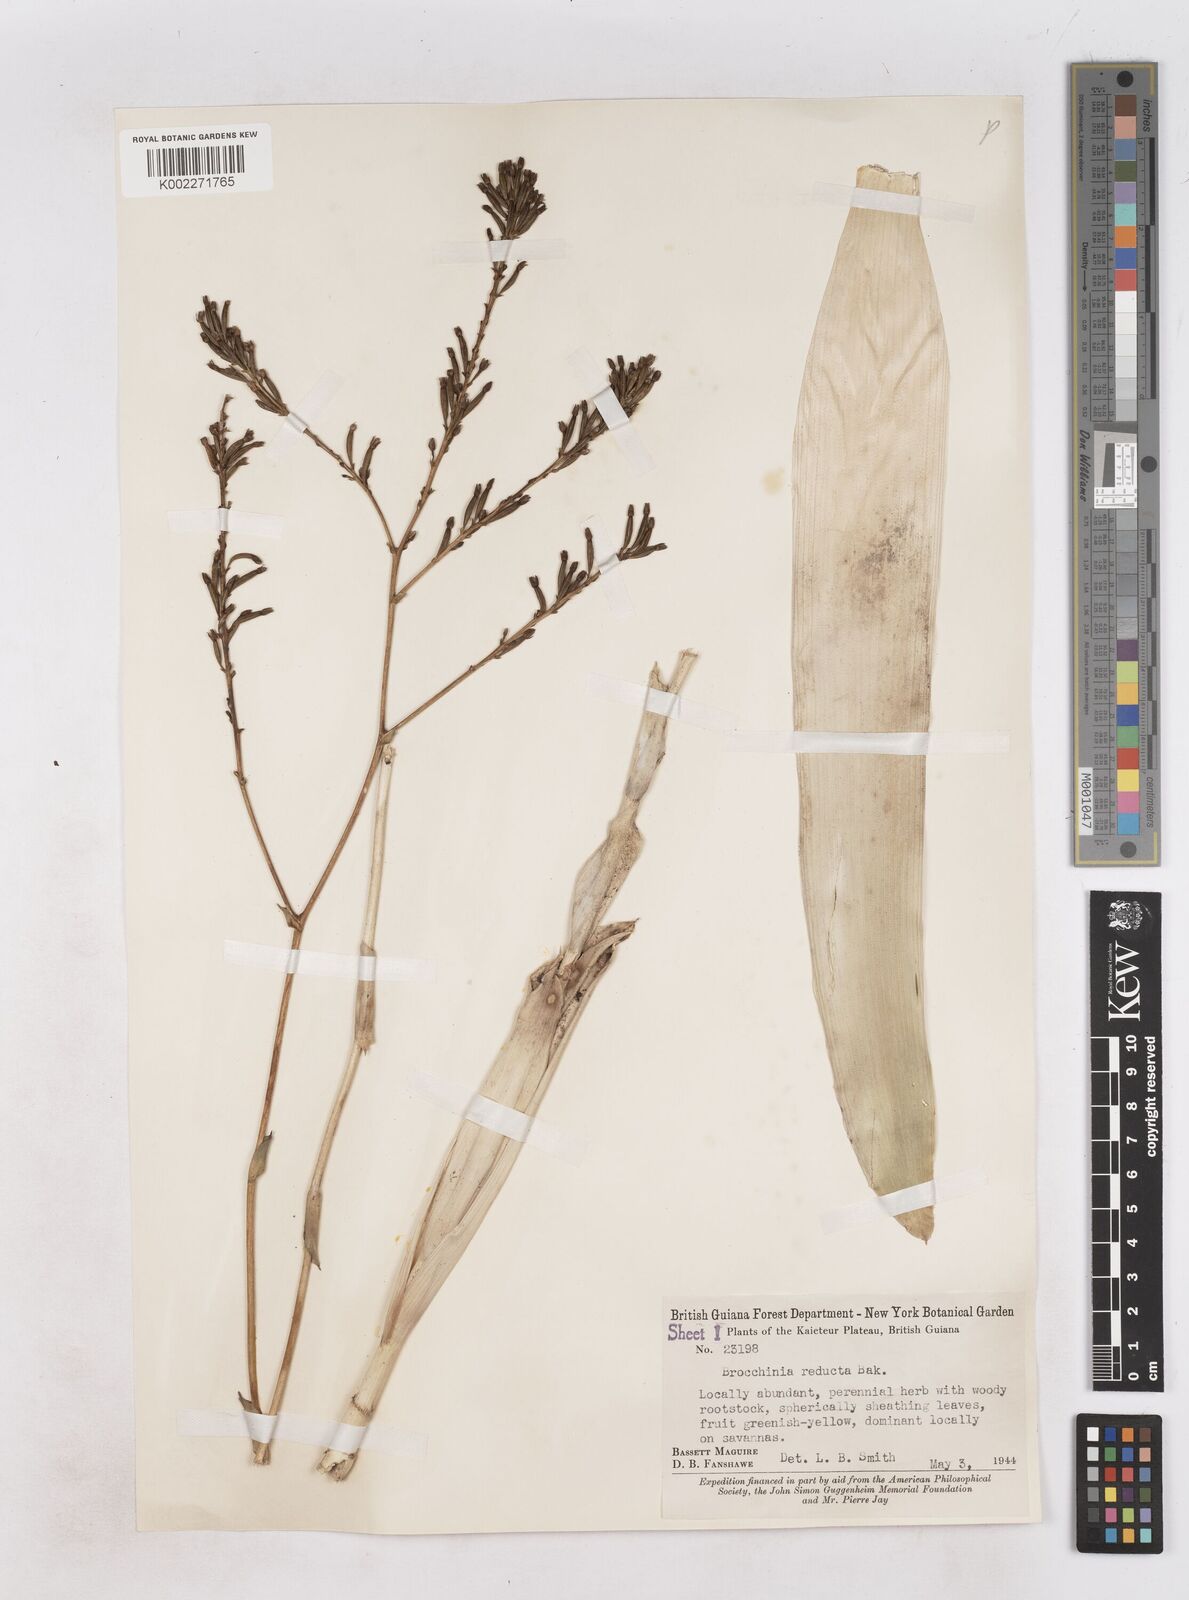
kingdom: Plantae
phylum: Tracheophyta
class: Liliopsida
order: Poales
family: Bromeliaceae
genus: Brocchinia
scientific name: Brocchinia reducta
